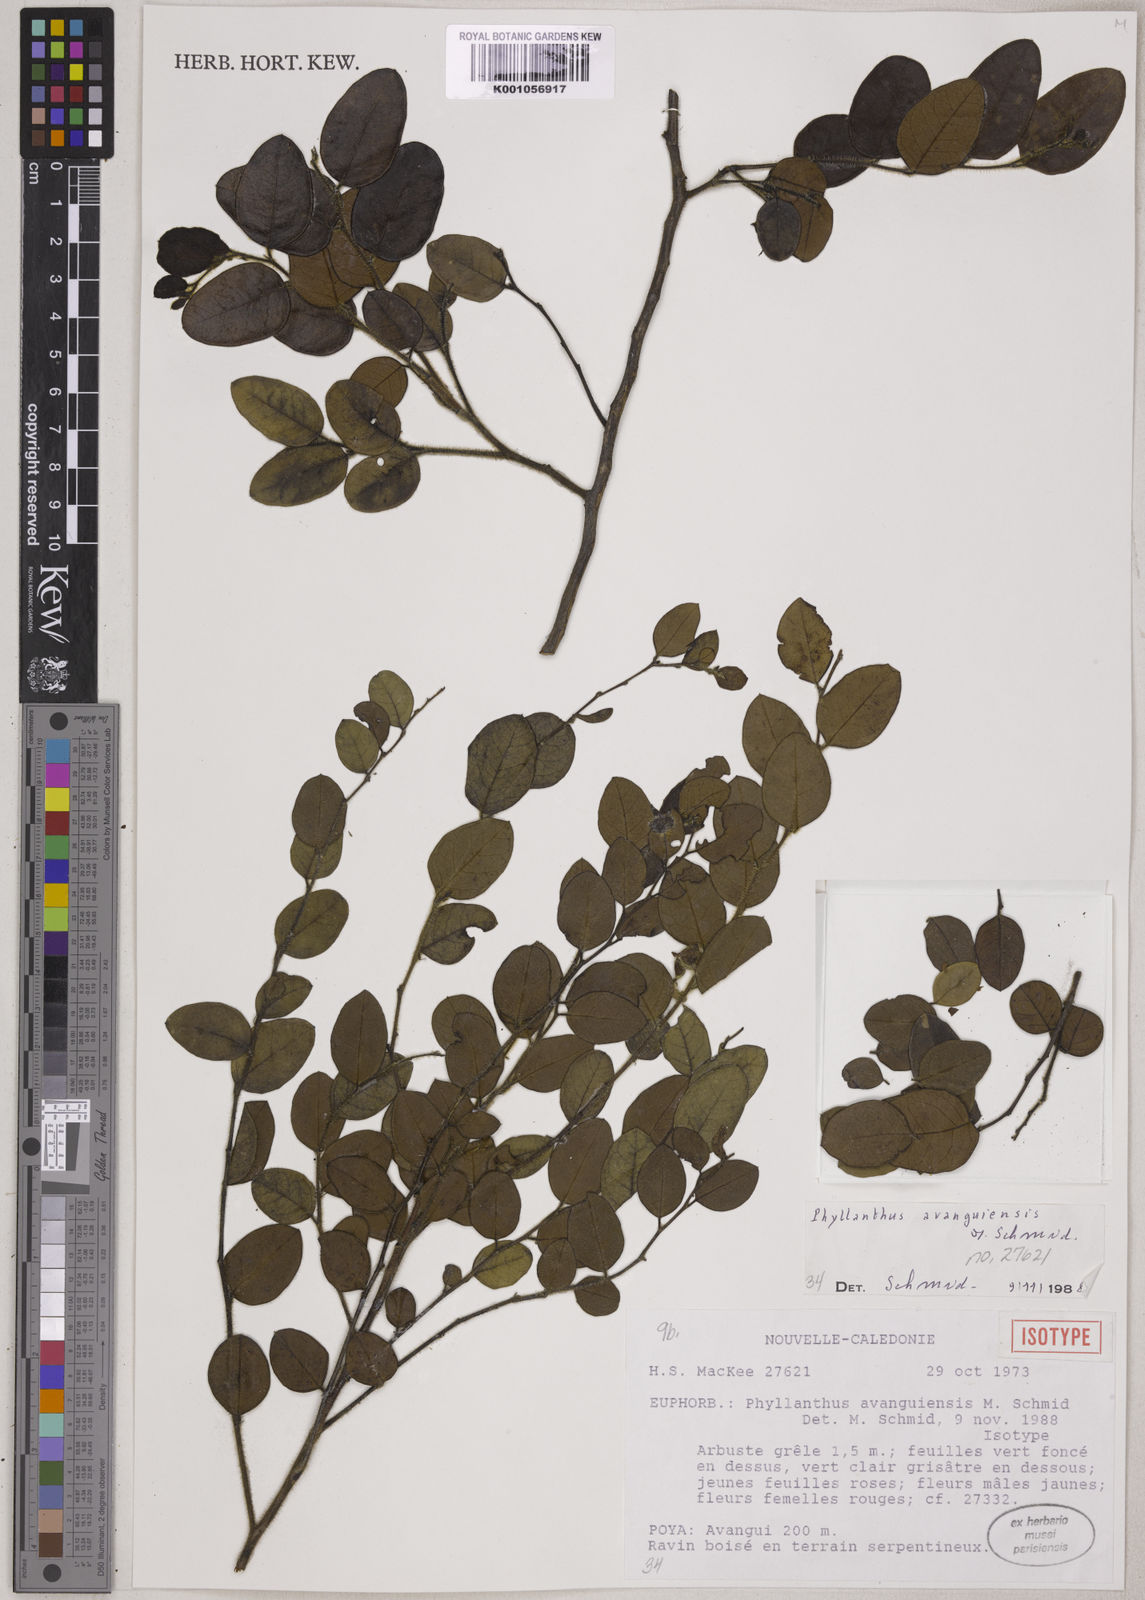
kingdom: Plantae
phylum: Tracheophyta
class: Magnoliopsida
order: Malpighiales
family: Phyllanthaceae
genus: Phyllanthus
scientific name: Phyllanthus avanguiensis
